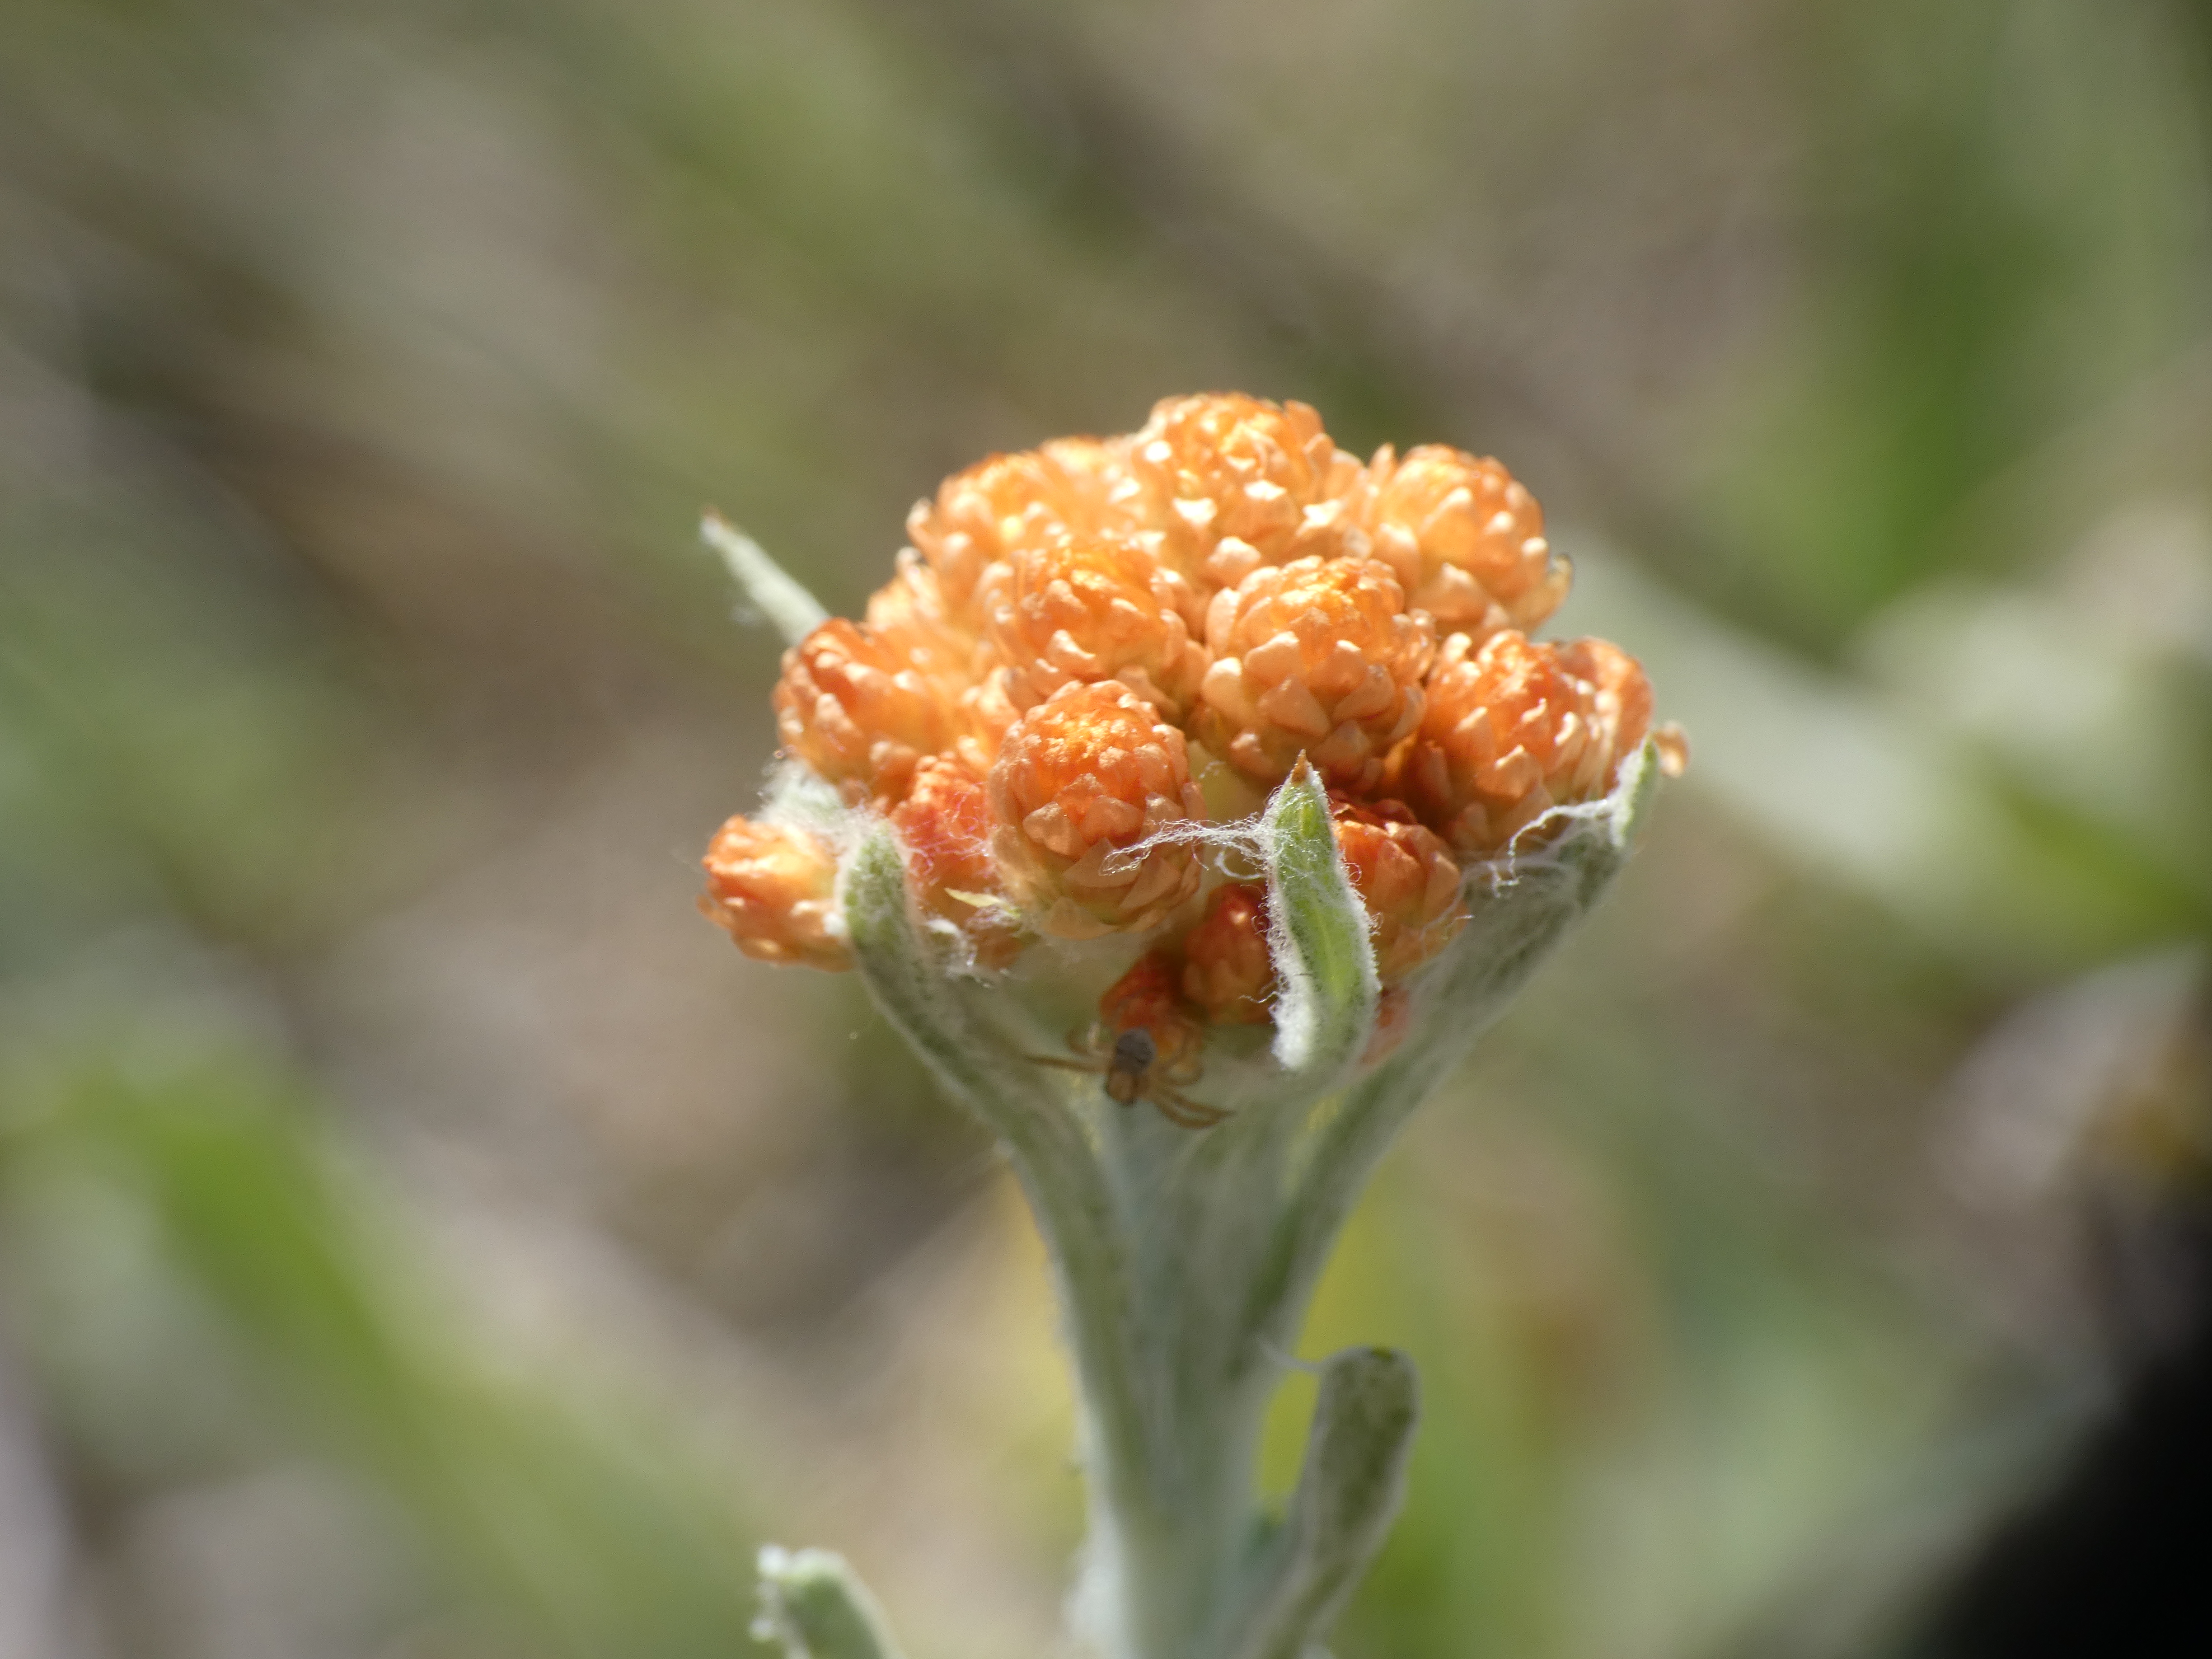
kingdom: Plantae
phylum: Tracheophyta
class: Magnoliopsida
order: Asterales
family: Asteraceae
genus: Helichrysum
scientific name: Helichrysum arenarium
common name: Gul evighedsblomst
